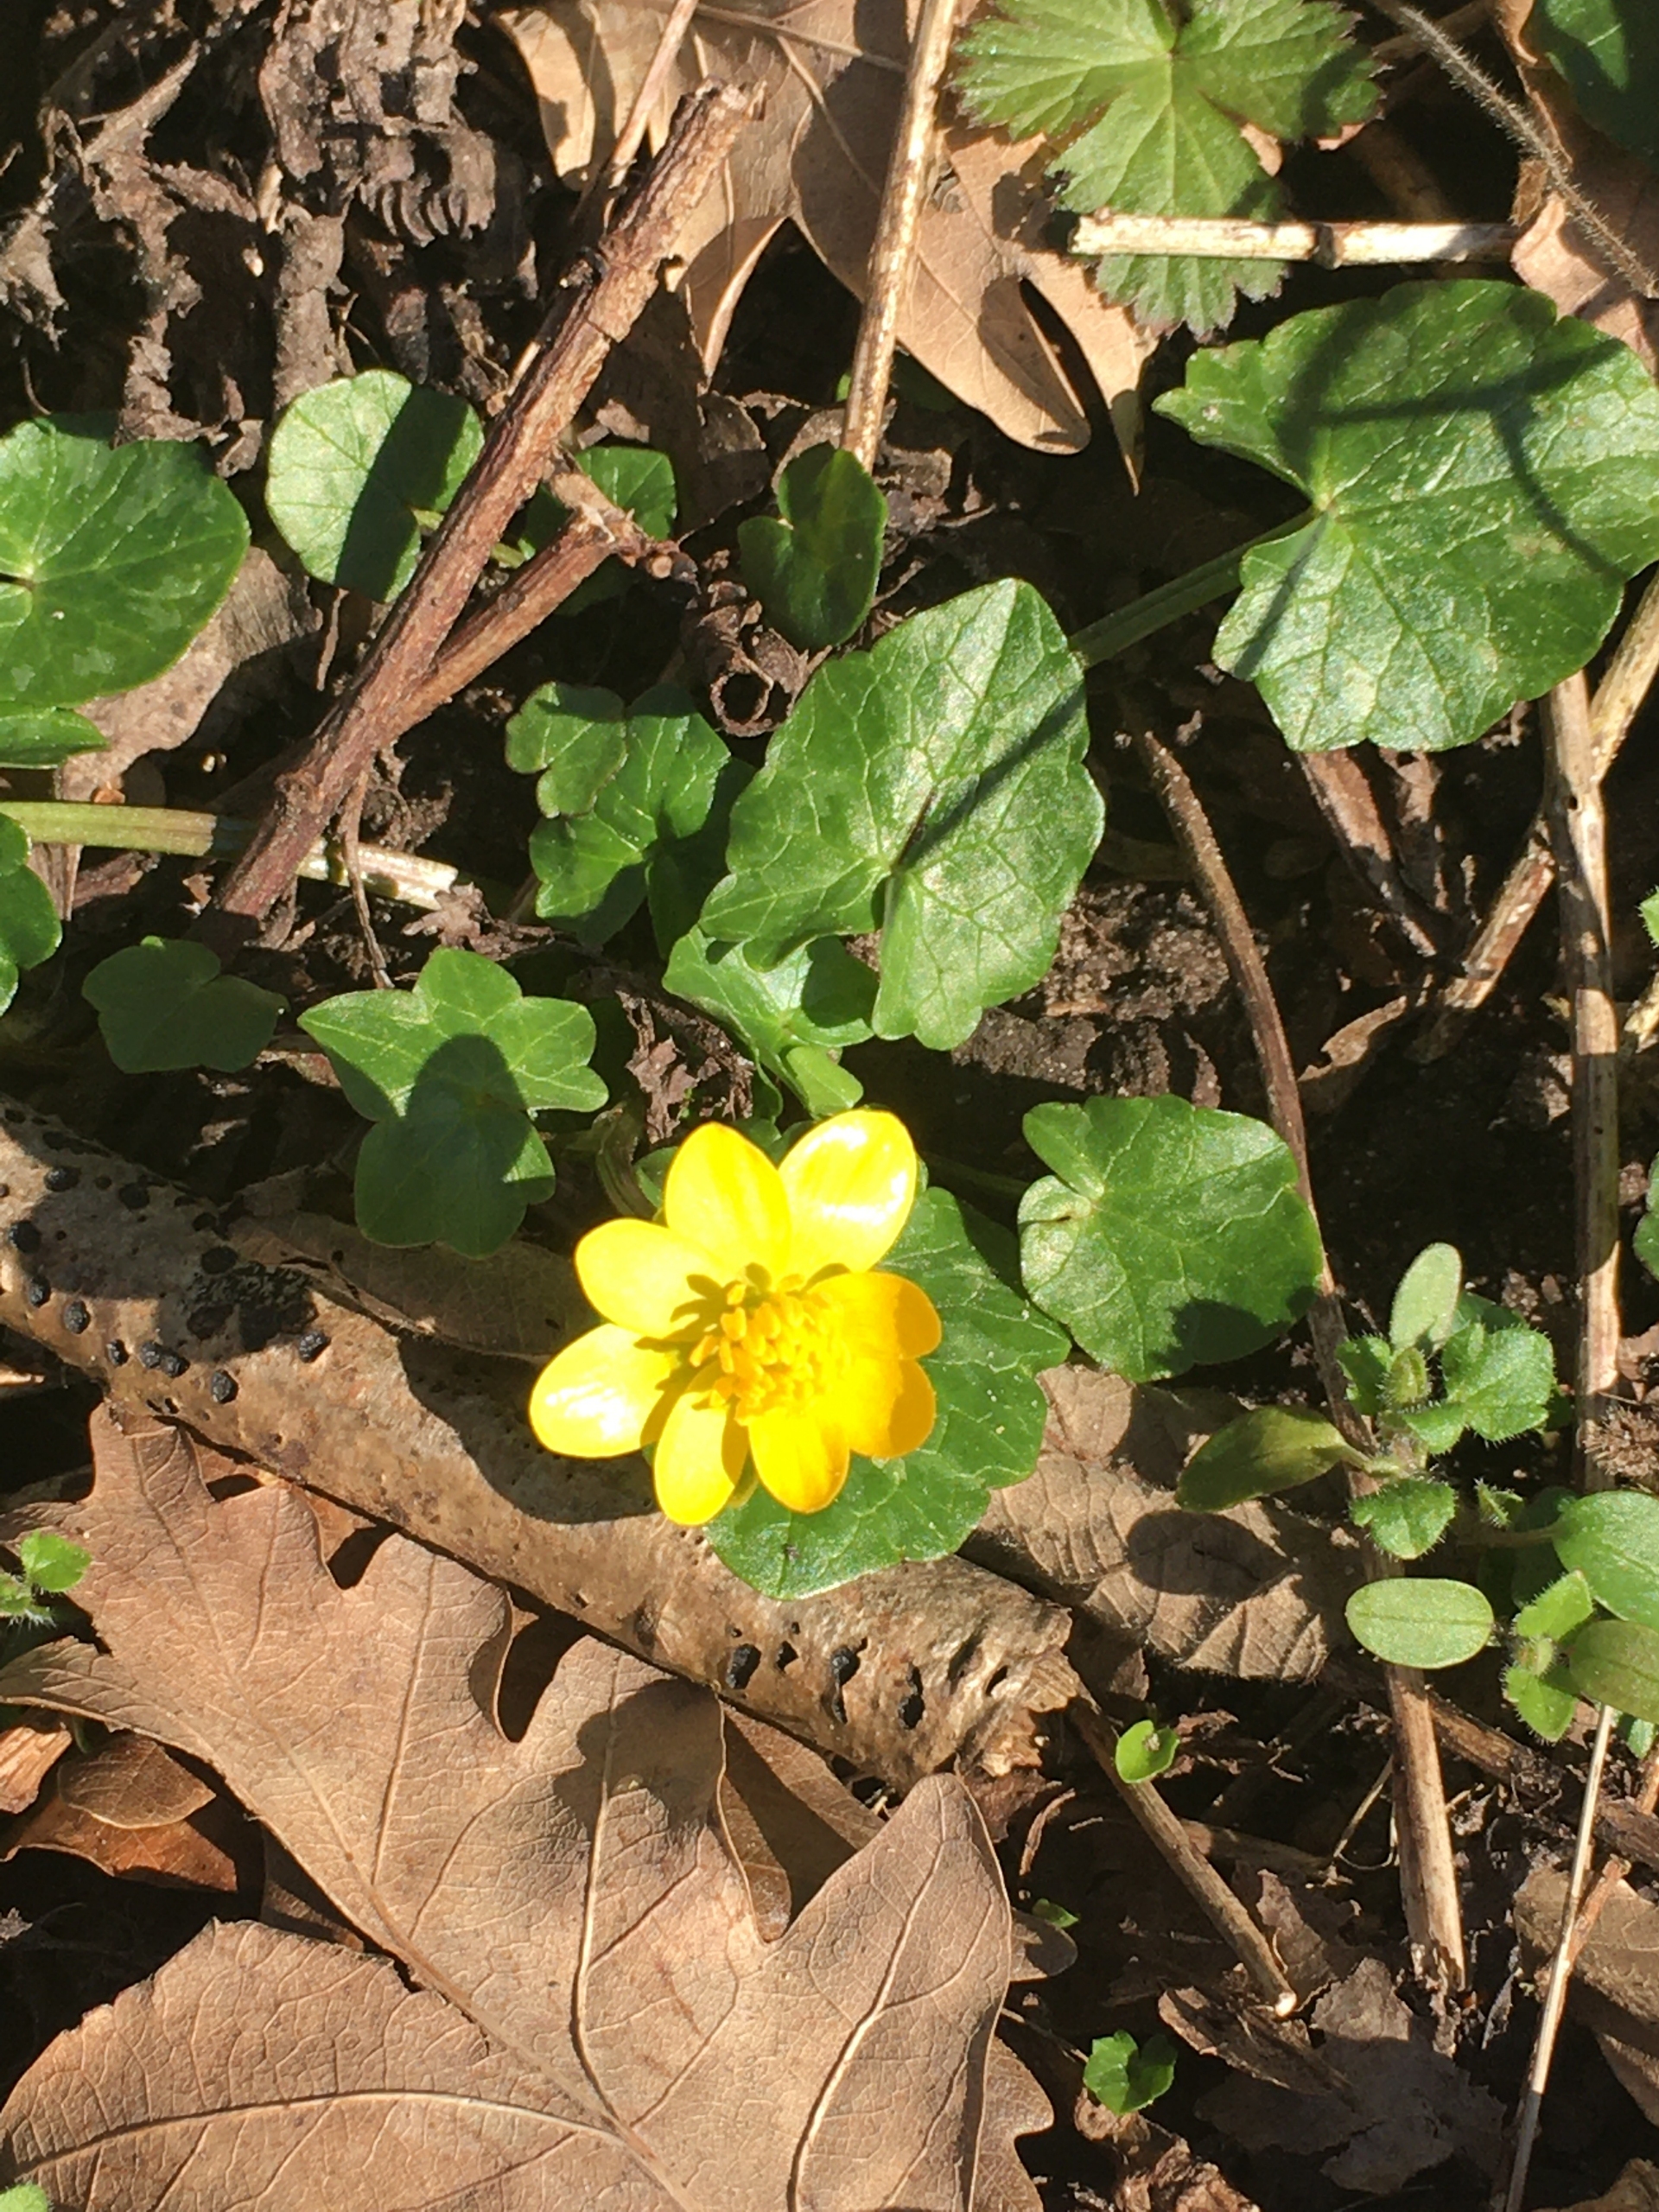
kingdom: Plantae
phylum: Tracheophyta
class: Magnoliopsida
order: Ranunculales
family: Ranunculaceae
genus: Ficaria
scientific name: Ficaria verna
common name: Vorterod
